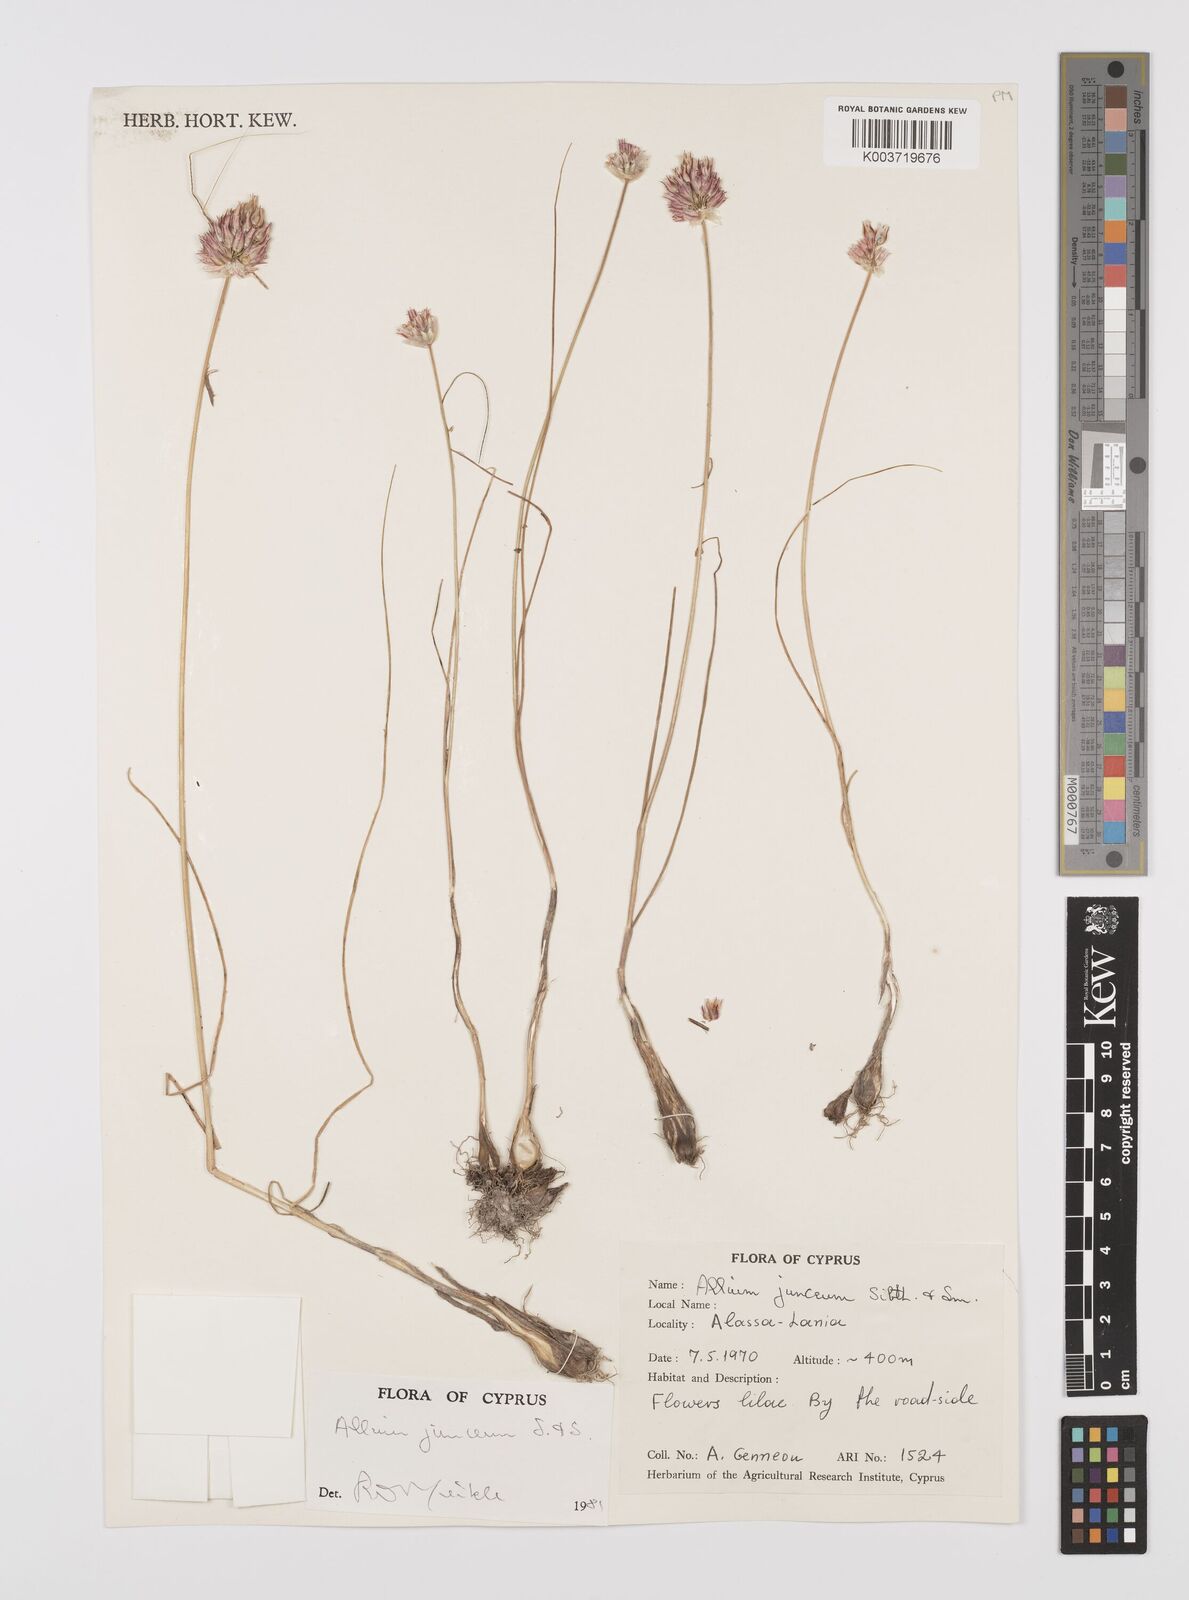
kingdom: Plantae
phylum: Tracheophyta
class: Liliopsida
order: Asparagales
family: Amaryllidaceae
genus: Allium
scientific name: Allium junceum
